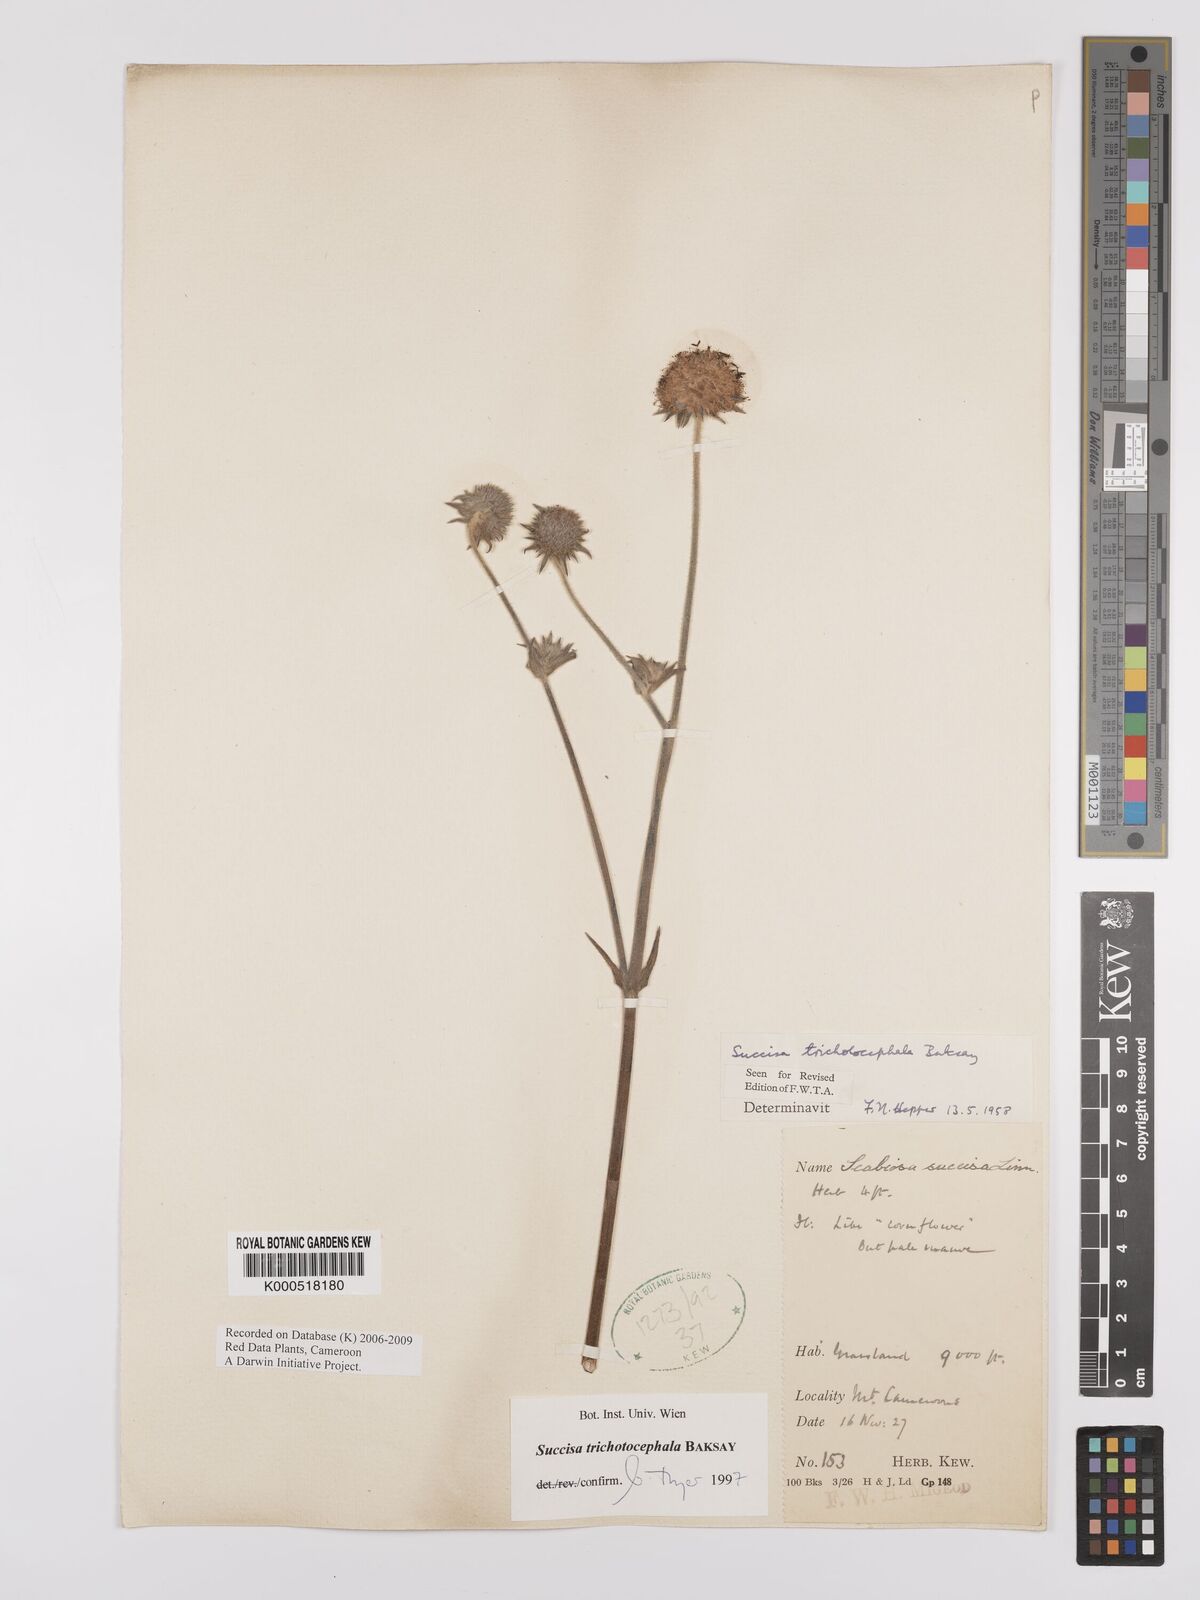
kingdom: Plantae
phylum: Tracheophyta
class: Magnoliopsida
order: Dipsacales
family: Caprifoliaceae
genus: Succisa
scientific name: Succisa trichotocephala
